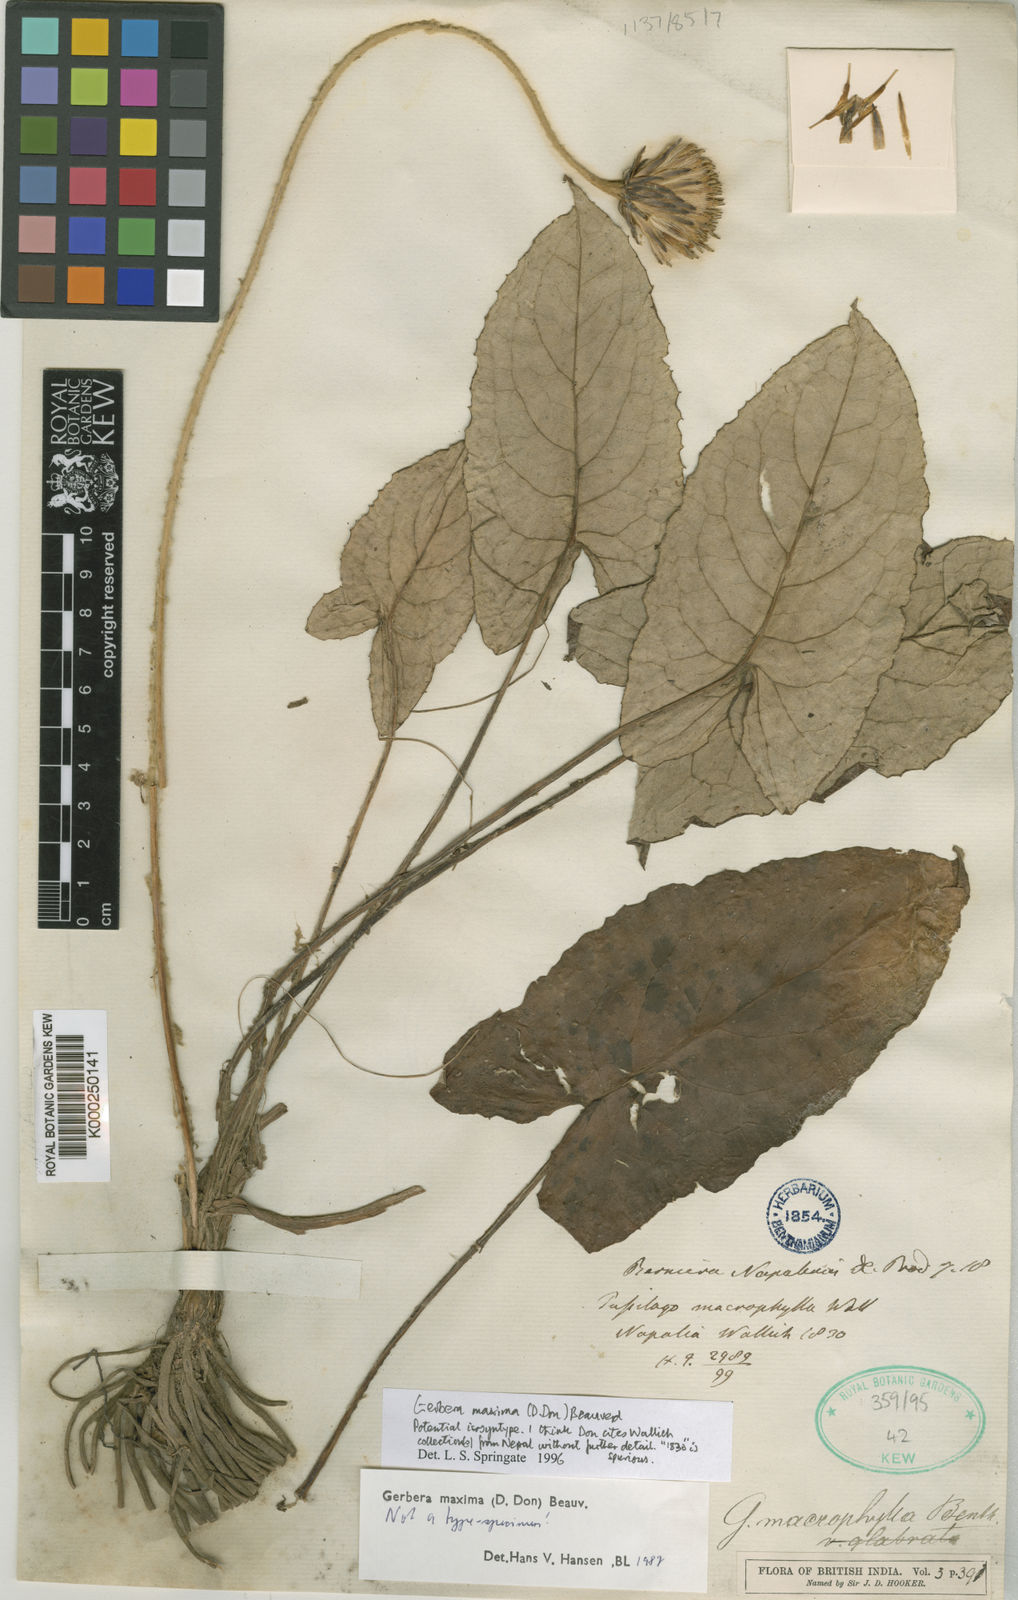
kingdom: Plantae
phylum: Tracheophyta
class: Magnoliopsida
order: Asterales
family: Asteraceae
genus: Oreoseris
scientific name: Oreoseris maxima
